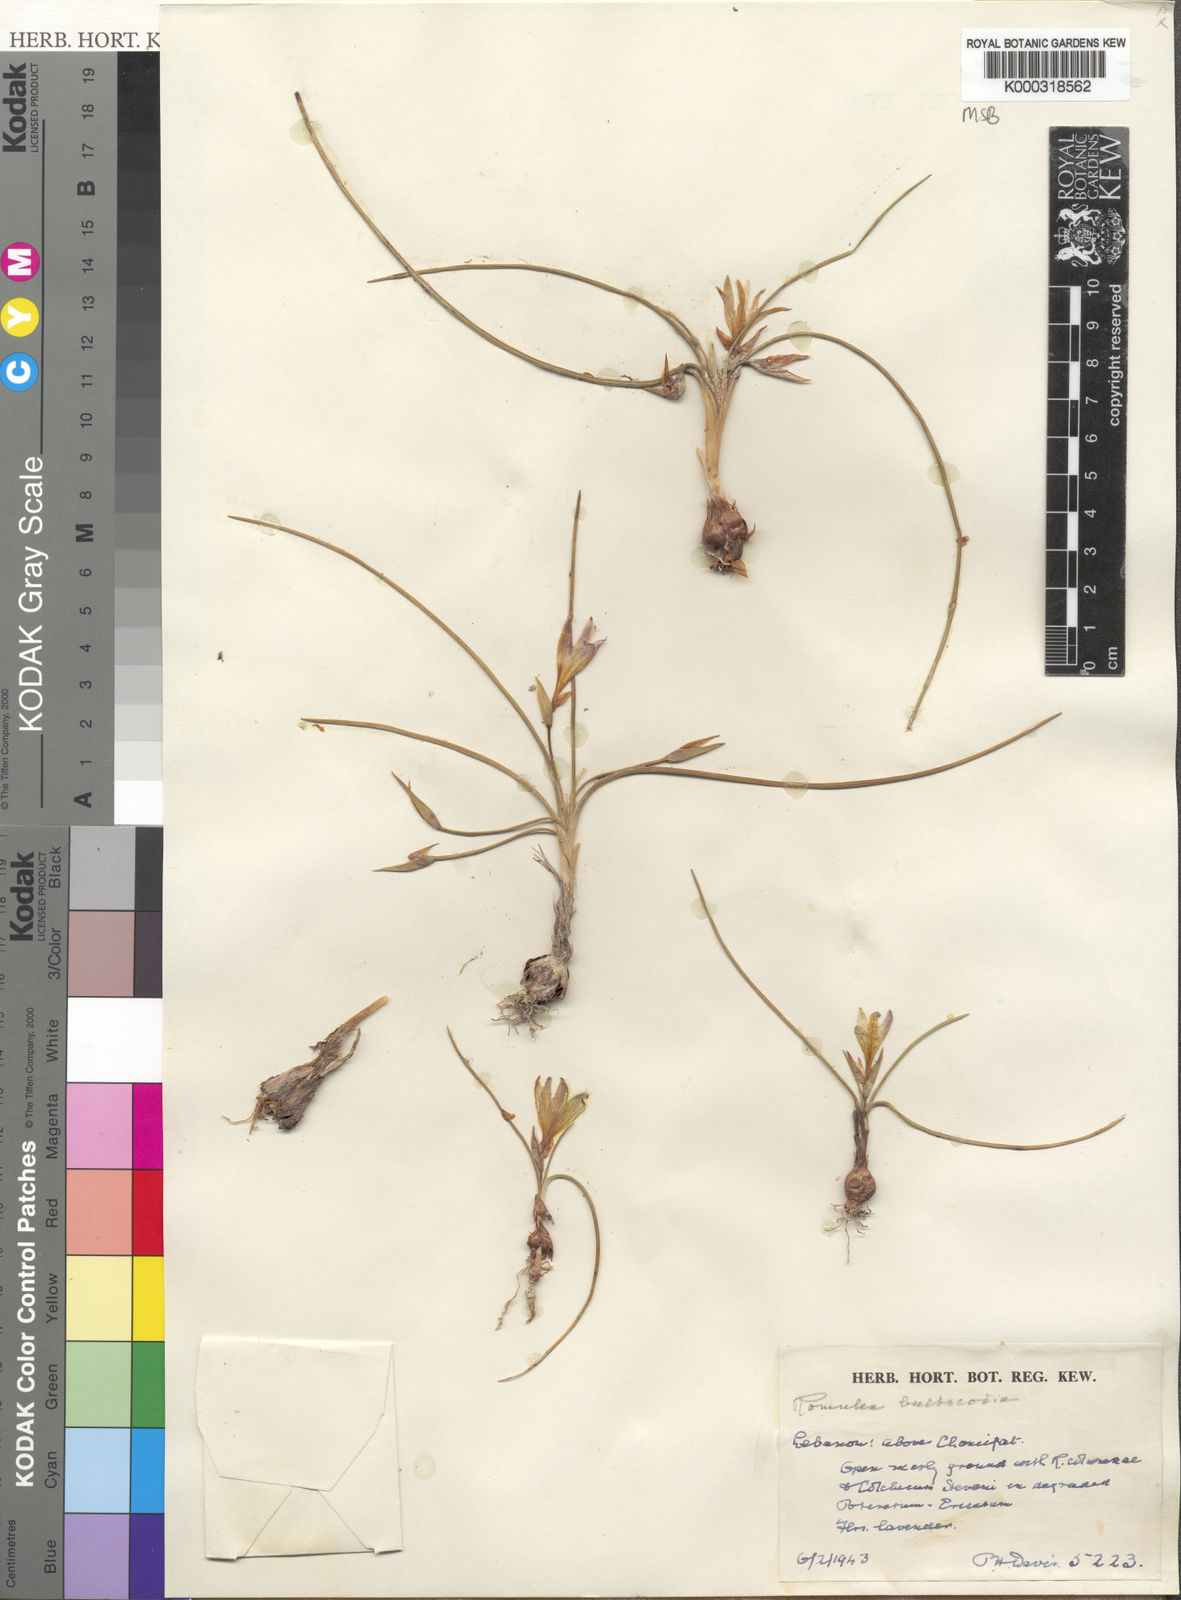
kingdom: Plantae
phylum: Tracheophyta
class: Liliopsida
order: Asparagales
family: Iridaceae
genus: Romulea
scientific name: Romulea bulbocodium
